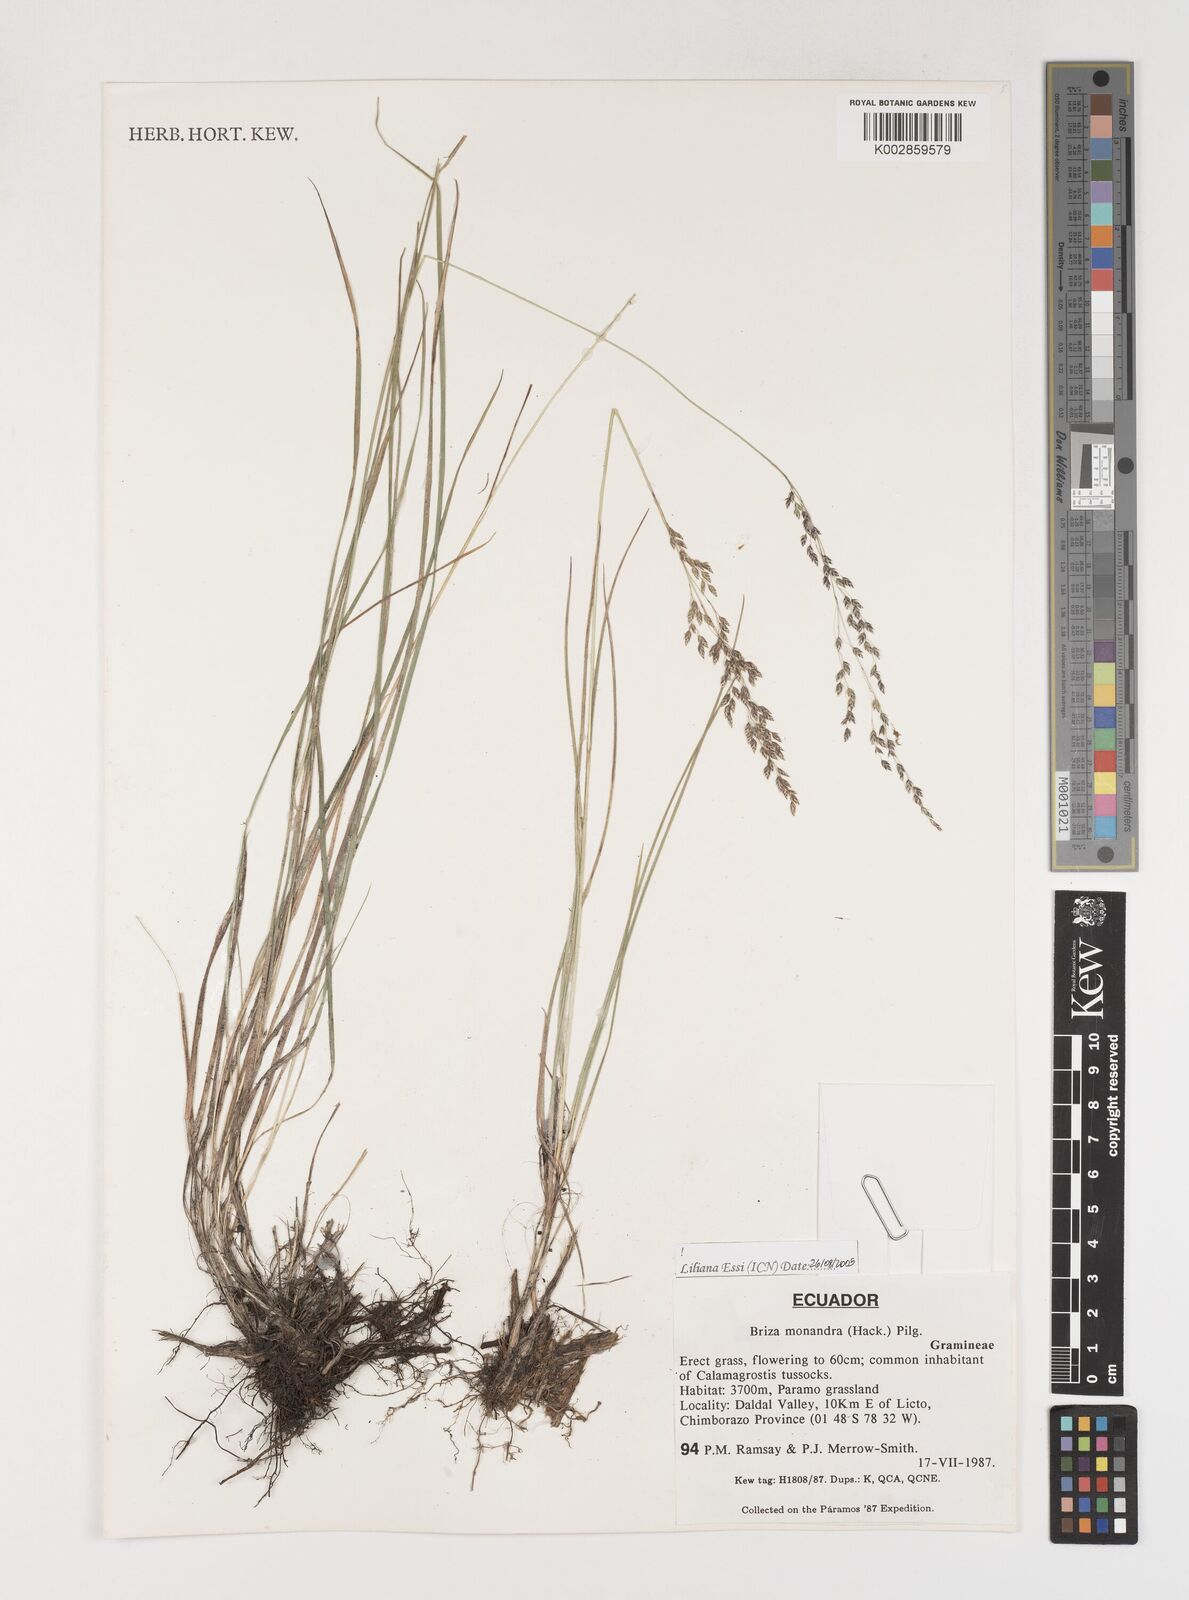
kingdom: Plantae
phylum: Tracheophyta
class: Liliopsida
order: Poales
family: Poaceae
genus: Poidium
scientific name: Poidium monandrum
